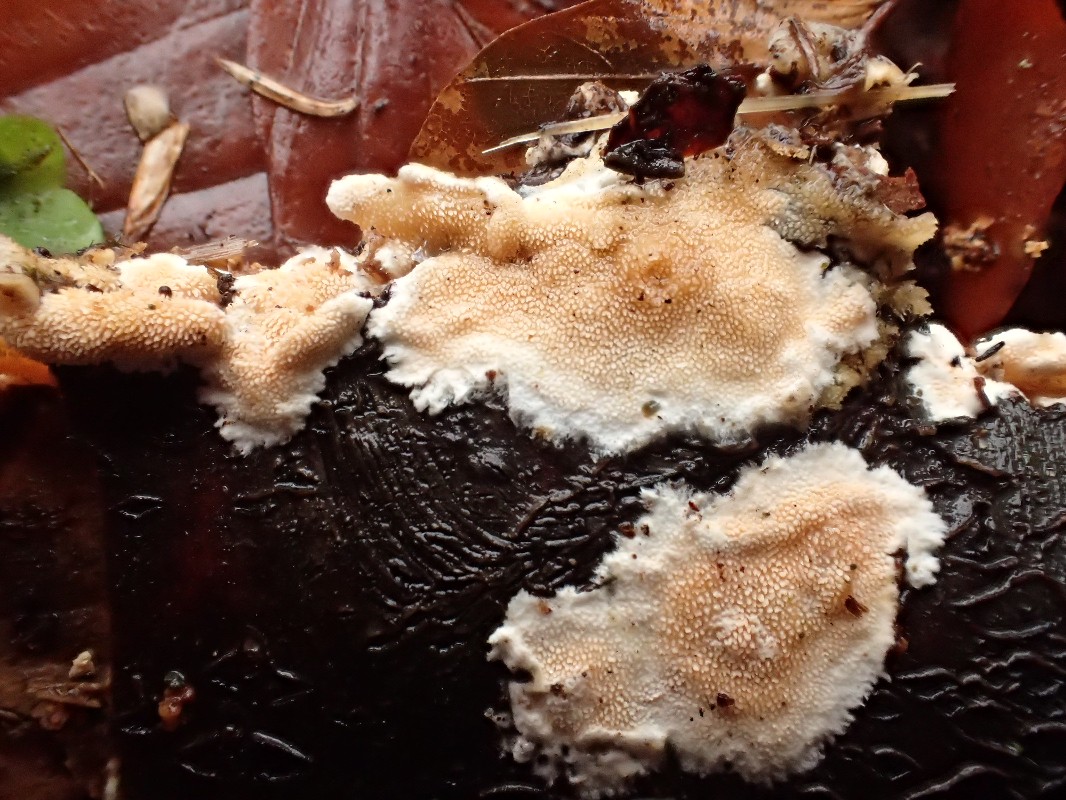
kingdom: Fungi
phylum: Basidiomycota
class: Agaricomycetes
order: Polyporales
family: Steccherinaceae
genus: Steccherinum
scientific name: Steccherinum ochraceum
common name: almindelig skønpig
